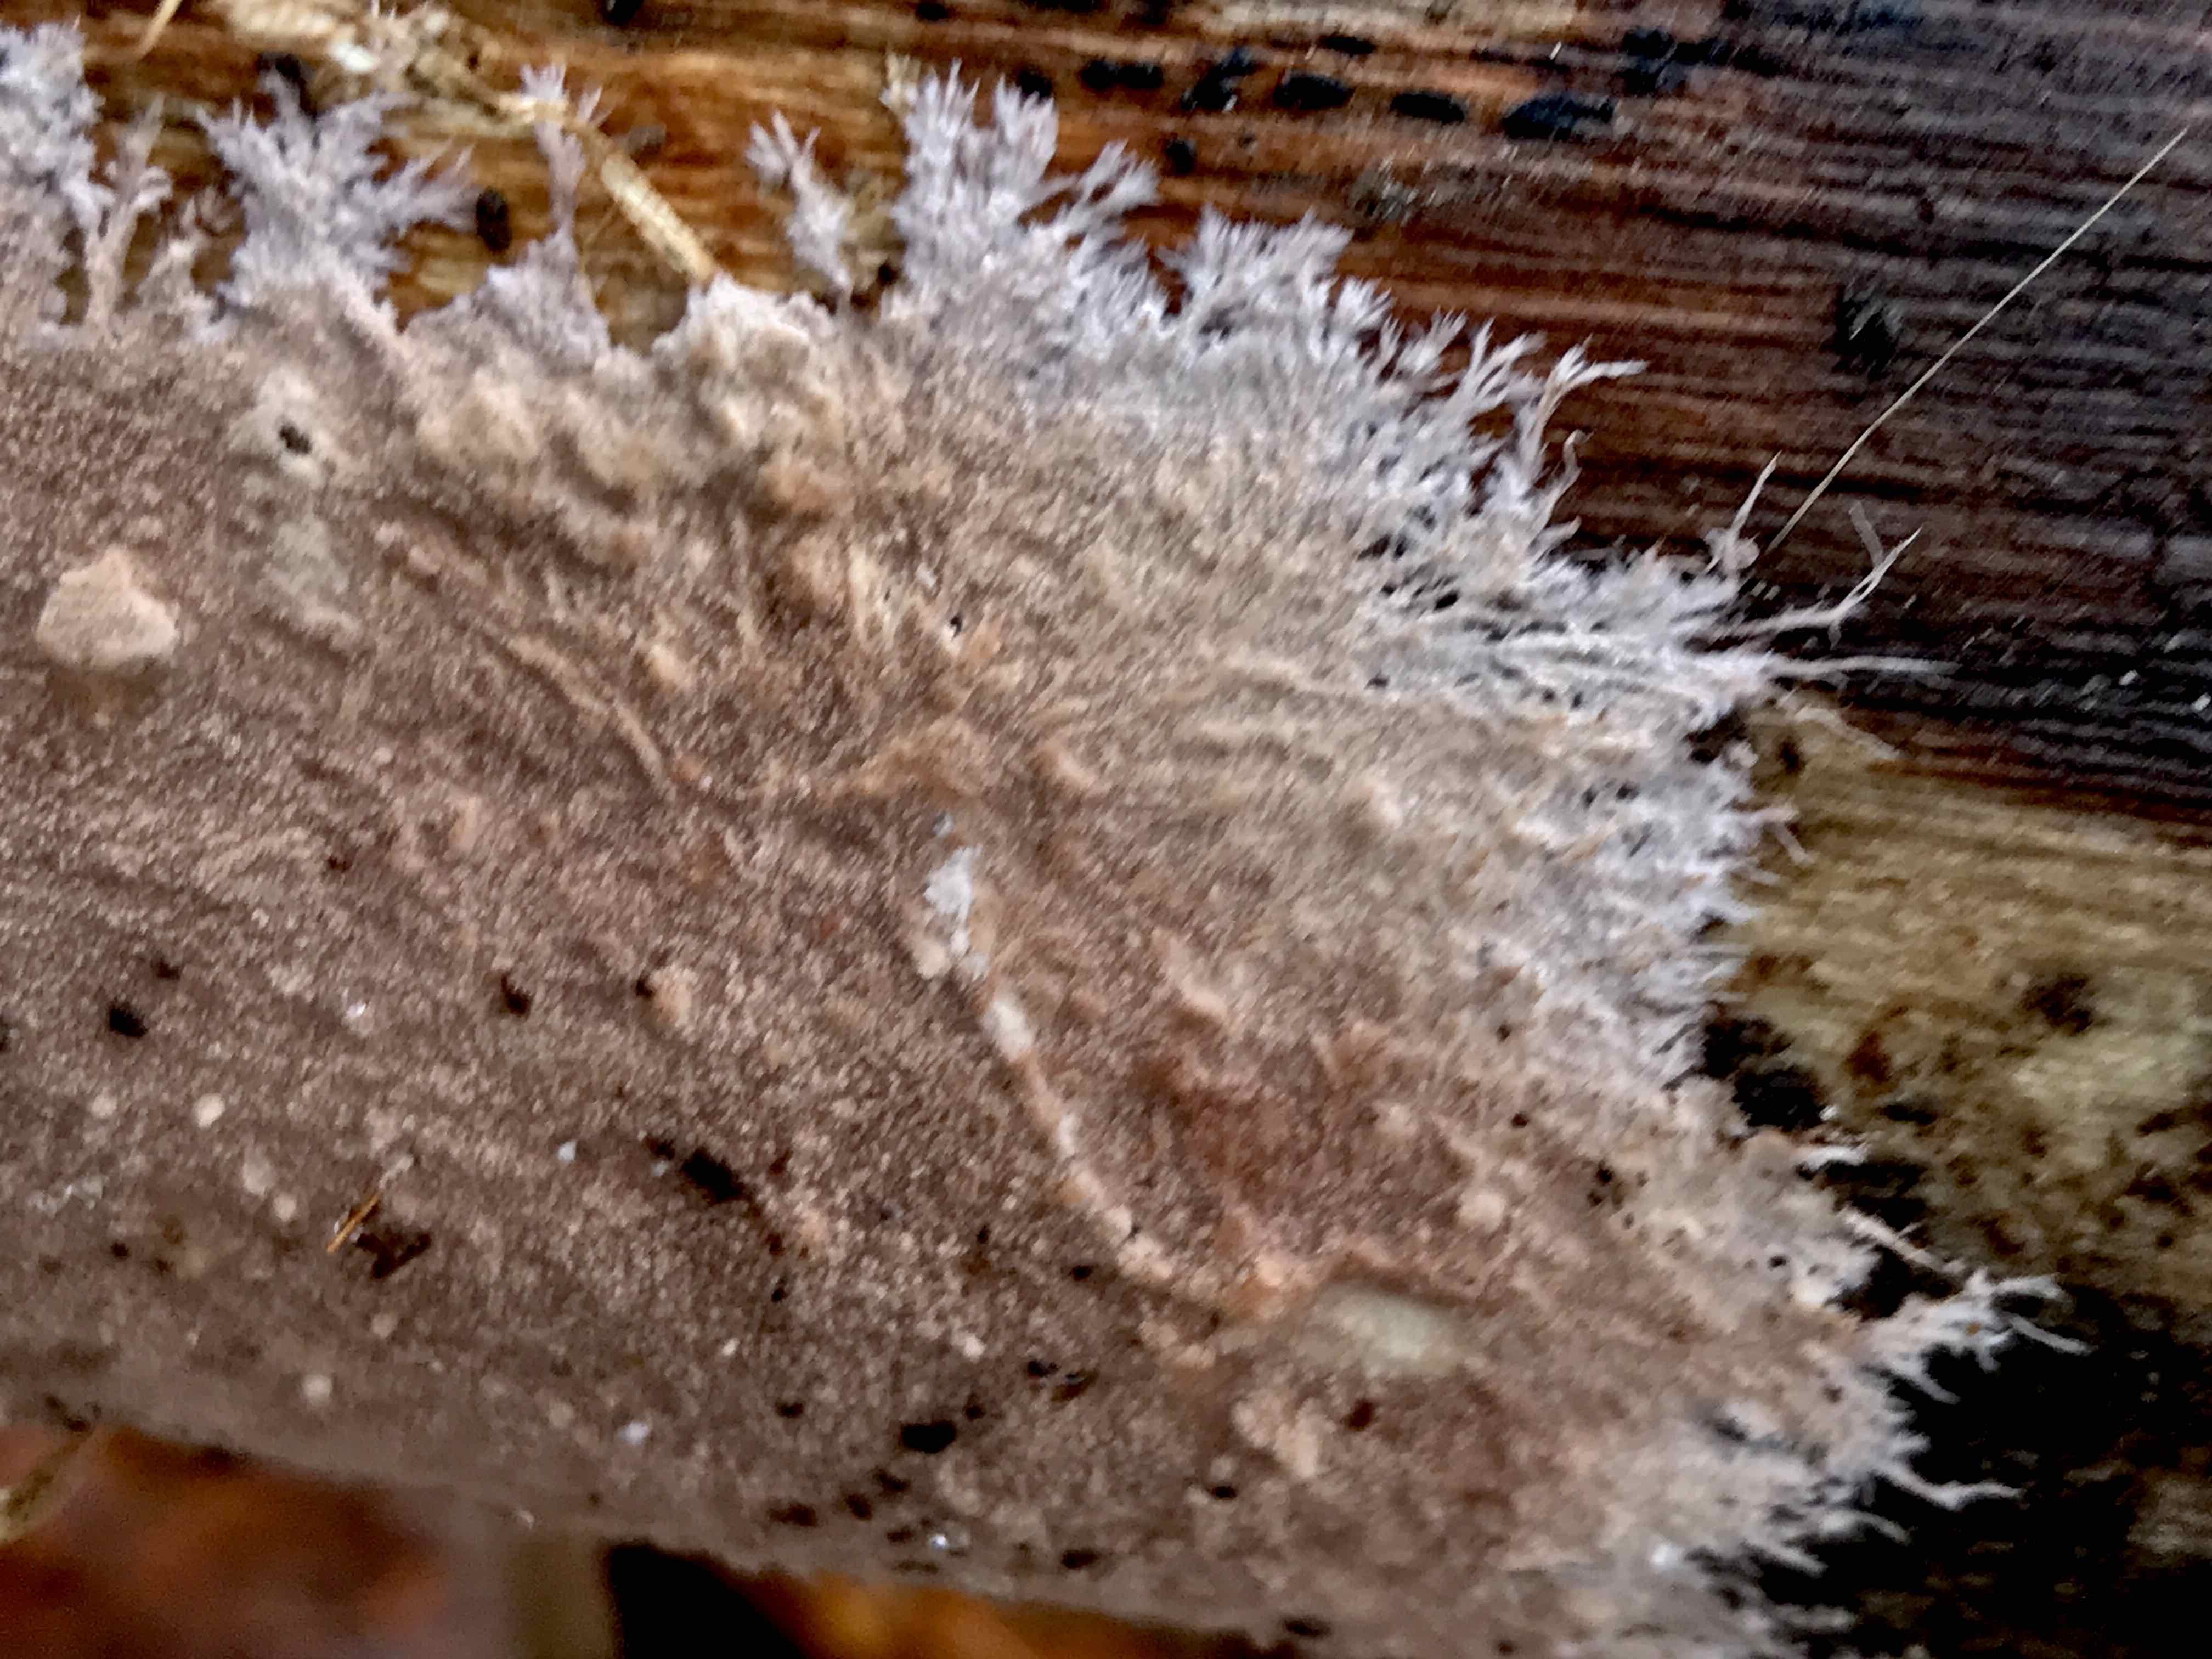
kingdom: Fungi
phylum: Basidiomycota
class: Agaricomycetes
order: Polyporales
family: Steccherinaceae
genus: Steccherinum
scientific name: Steccherinum fimbriatum
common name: trådet skønpig
